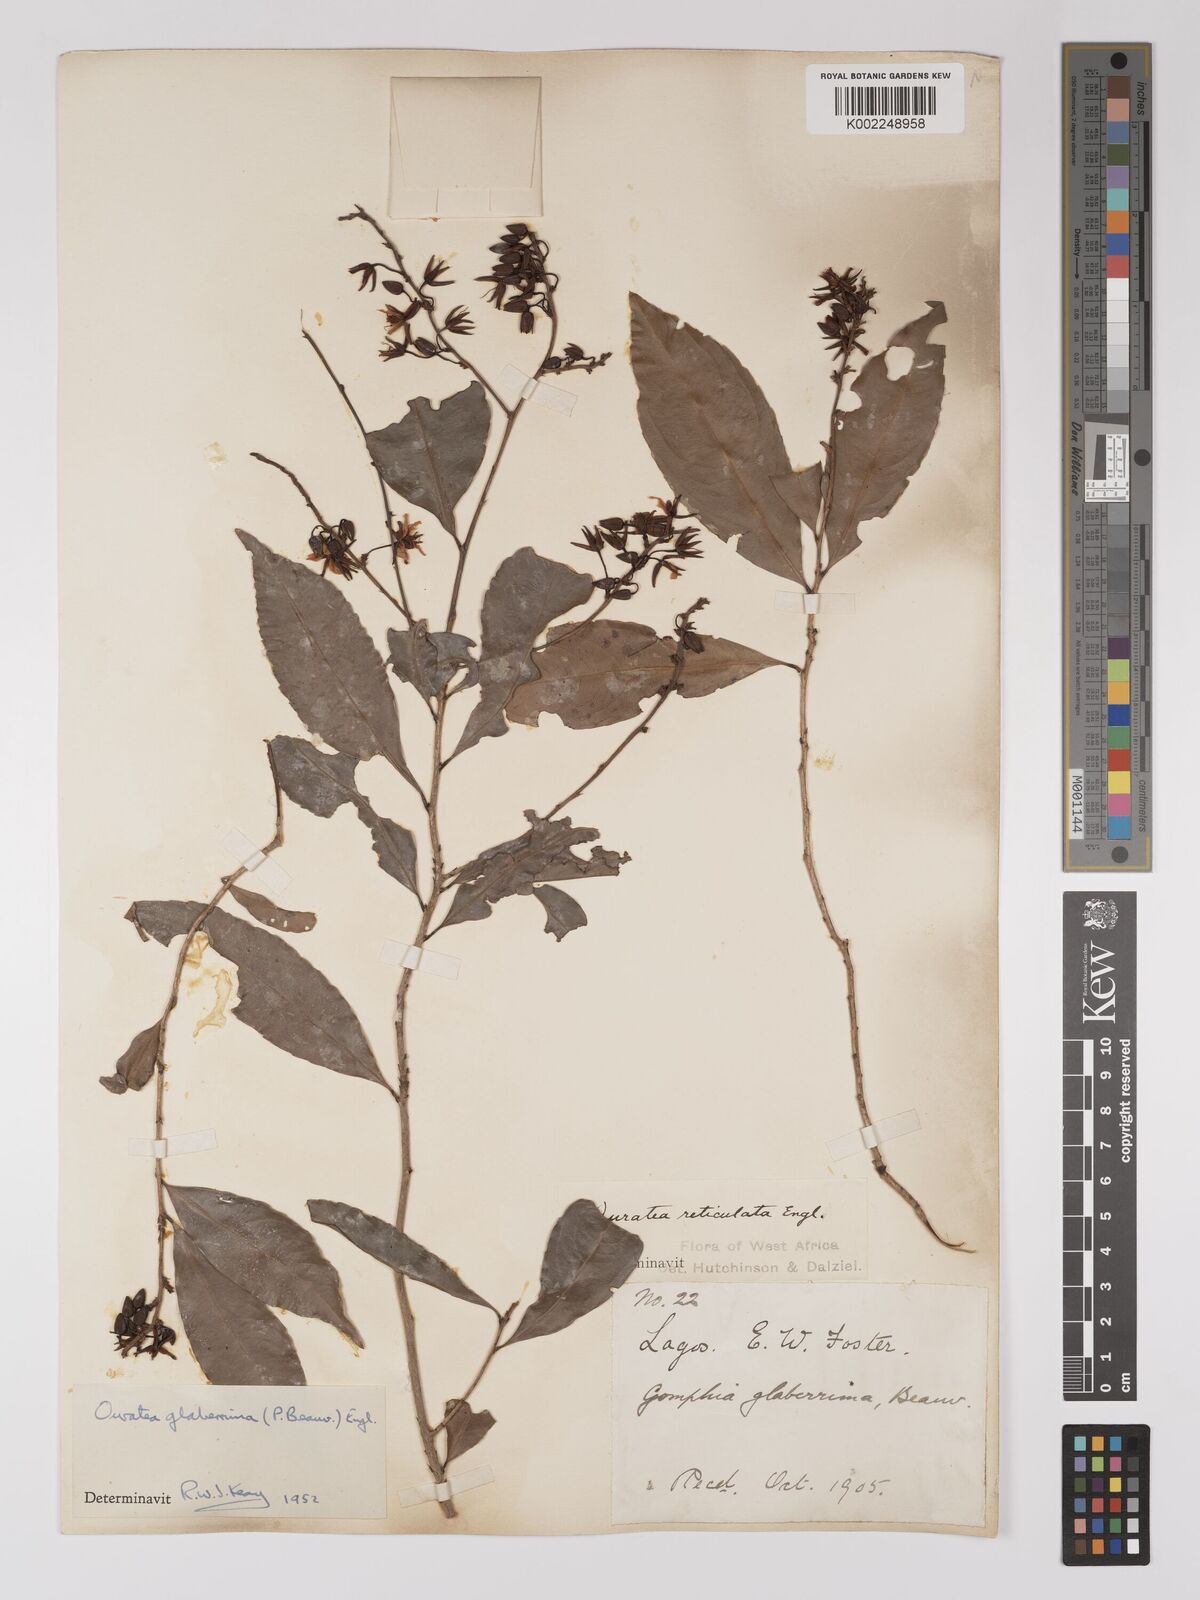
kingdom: Plantae
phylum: Tracheophyta
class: Magnoliopsida
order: Malpighiales
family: Ochnaceae
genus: Campylospermum
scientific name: Campylospermum glaberrimum
